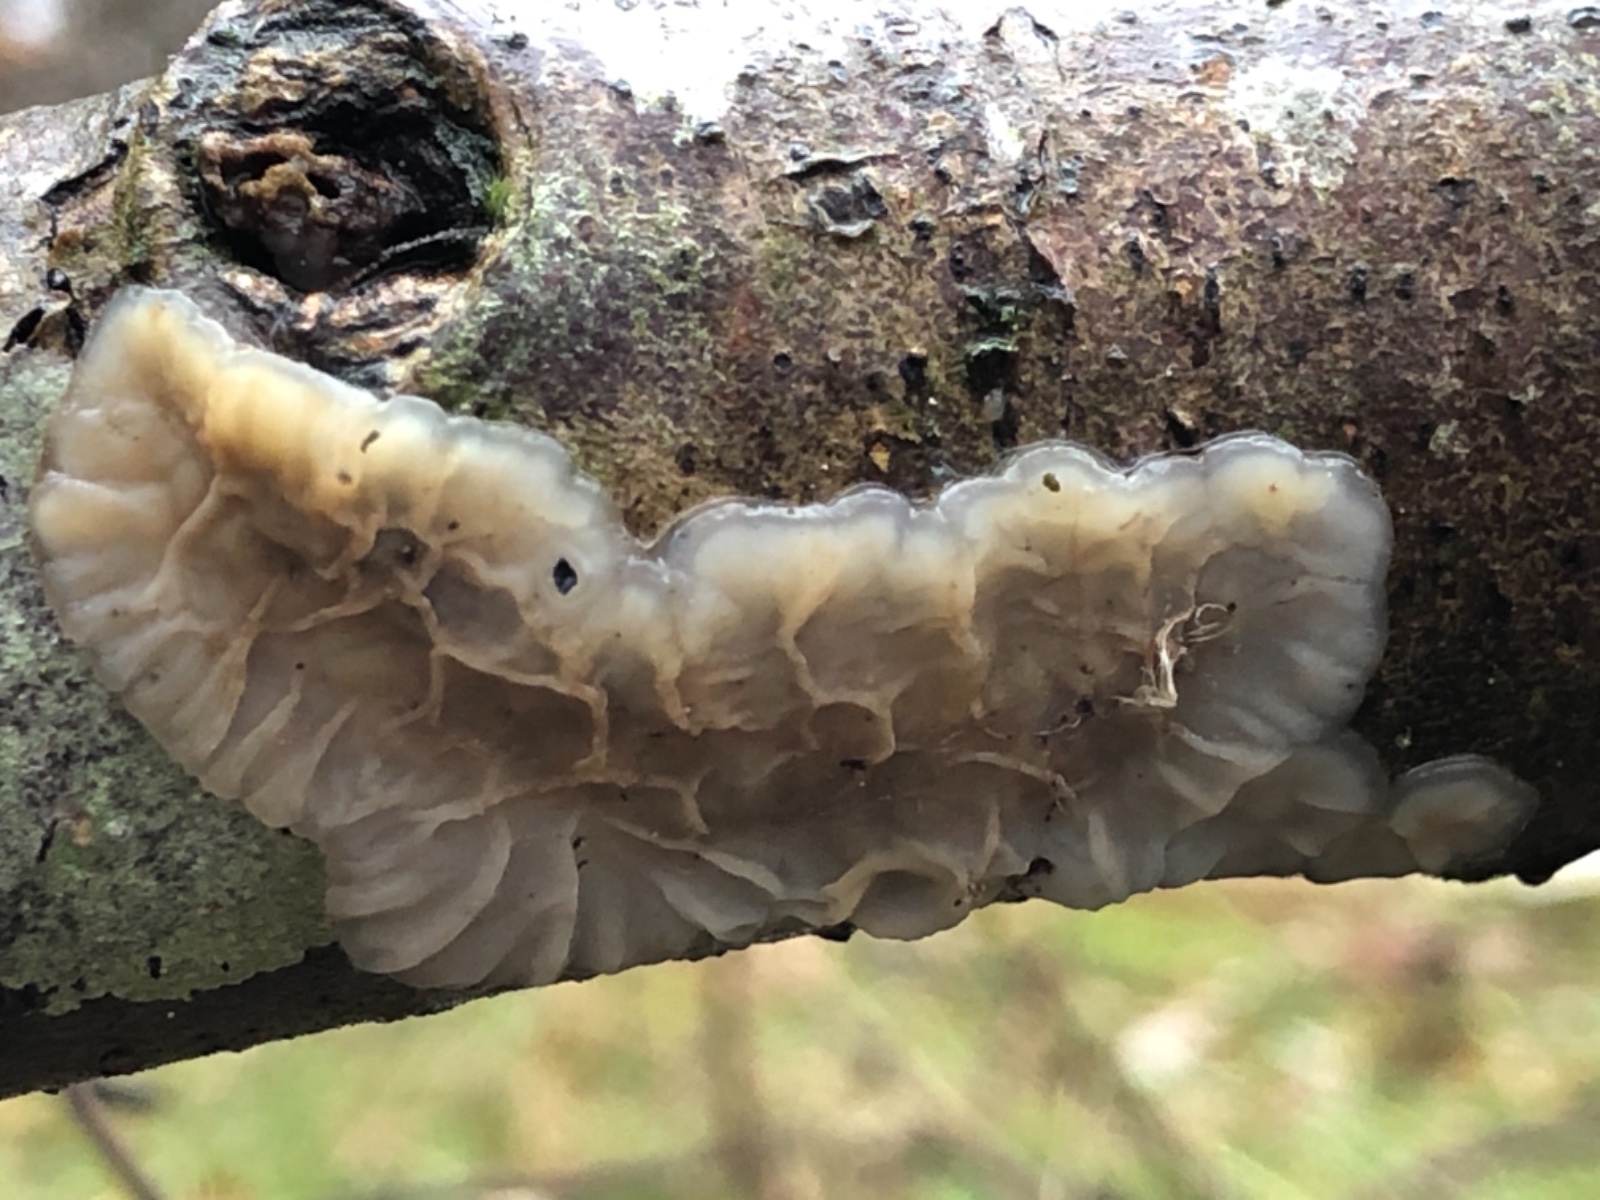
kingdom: Fungi
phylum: Basidiomycota
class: Agaricomycetes
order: Auriculariales
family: Auriculariaceae
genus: Exidia
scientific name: Exidia thuretiana
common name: hvidlig bævretop
